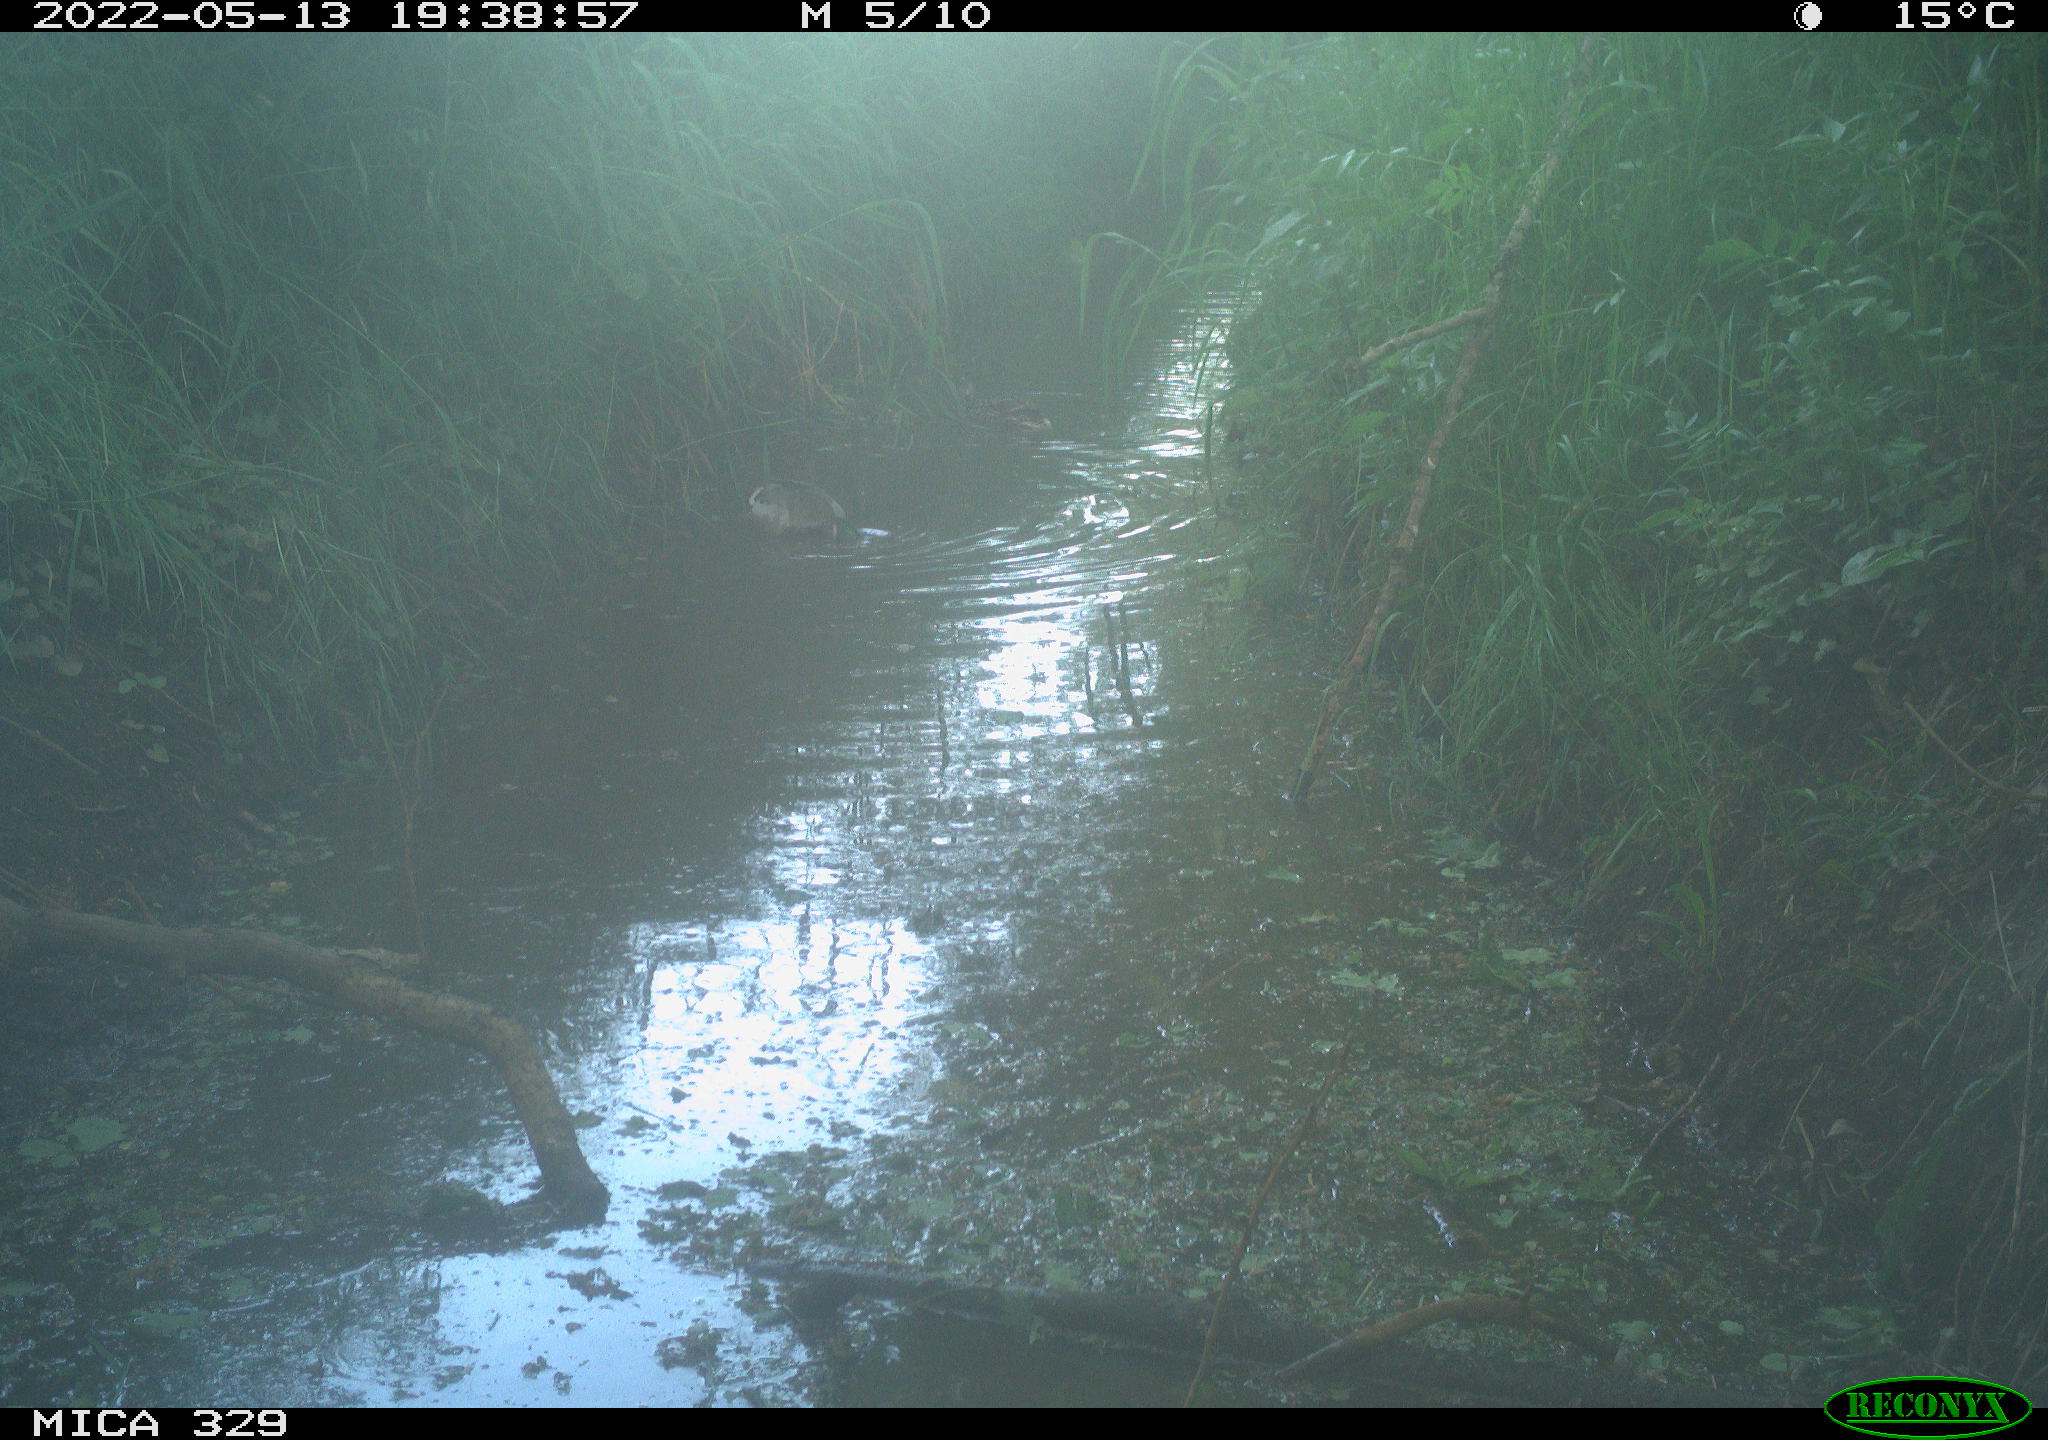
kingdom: Animalia
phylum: Chordata
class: Aves
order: Anseriformes
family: Anatidae
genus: Anas
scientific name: Anas platyrhynchos
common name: Mallard
